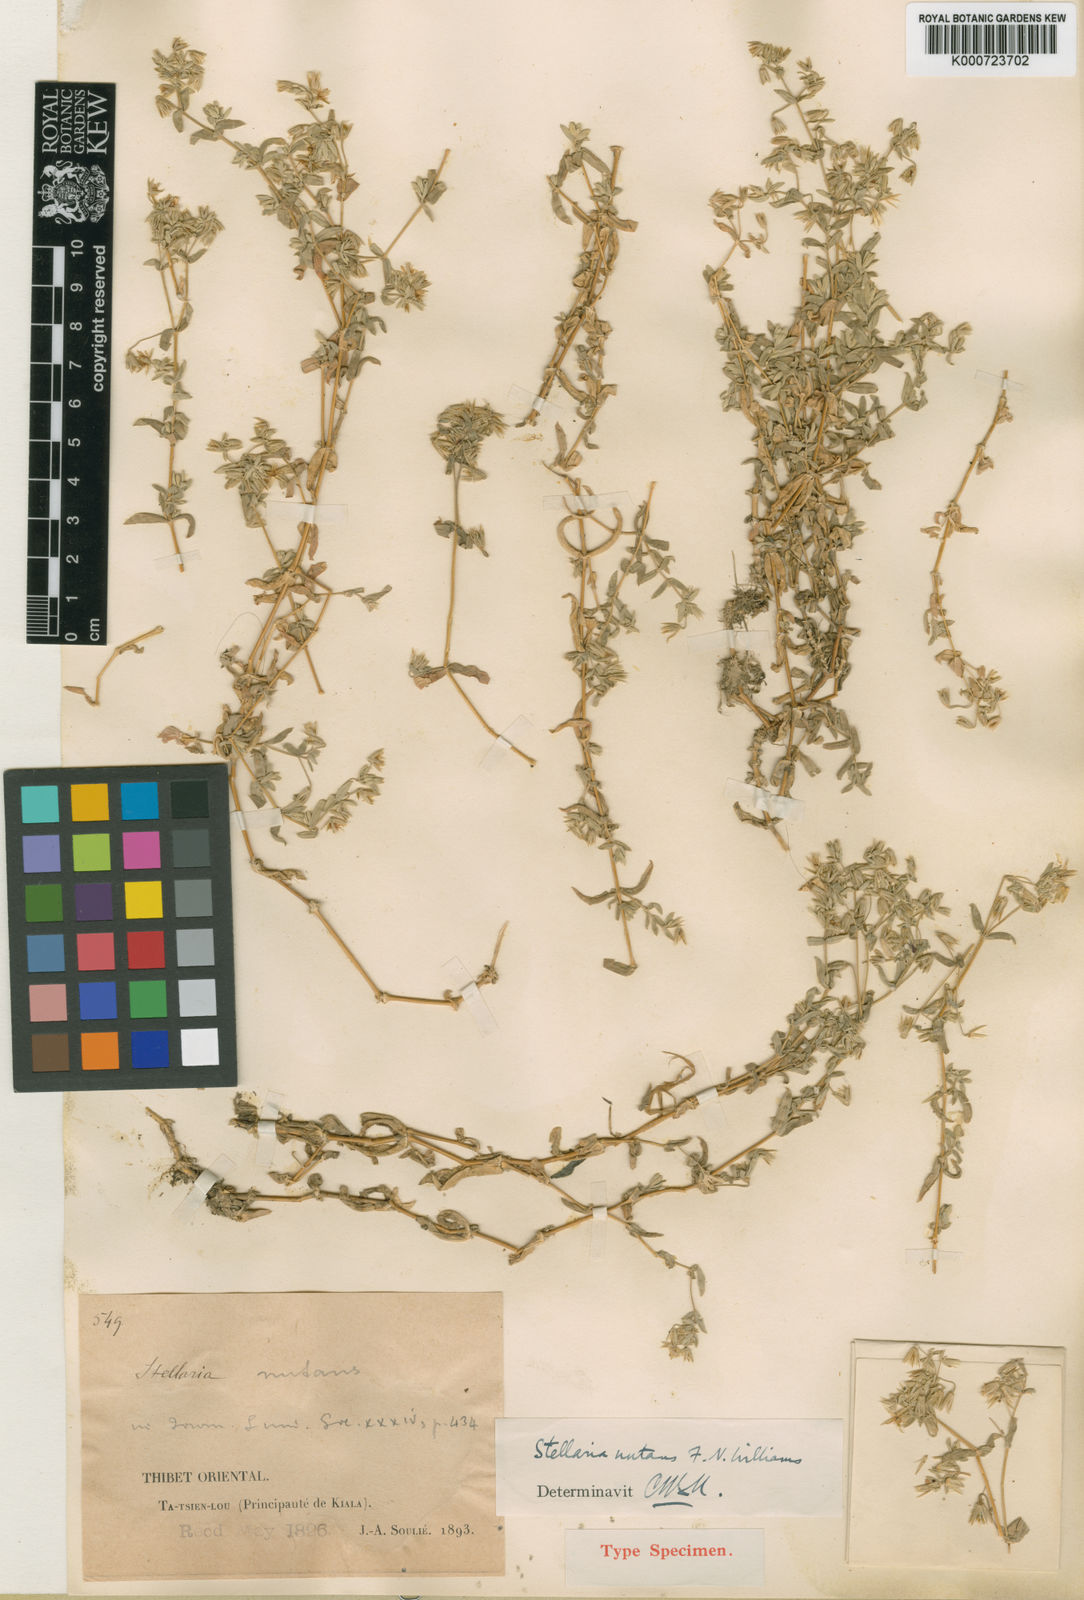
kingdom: Plantae
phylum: Tracheophyta
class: Magnoliopsida
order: Caryophyllales
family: Caryophyllaceae
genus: Stellaria
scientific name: Stellaria infracta
